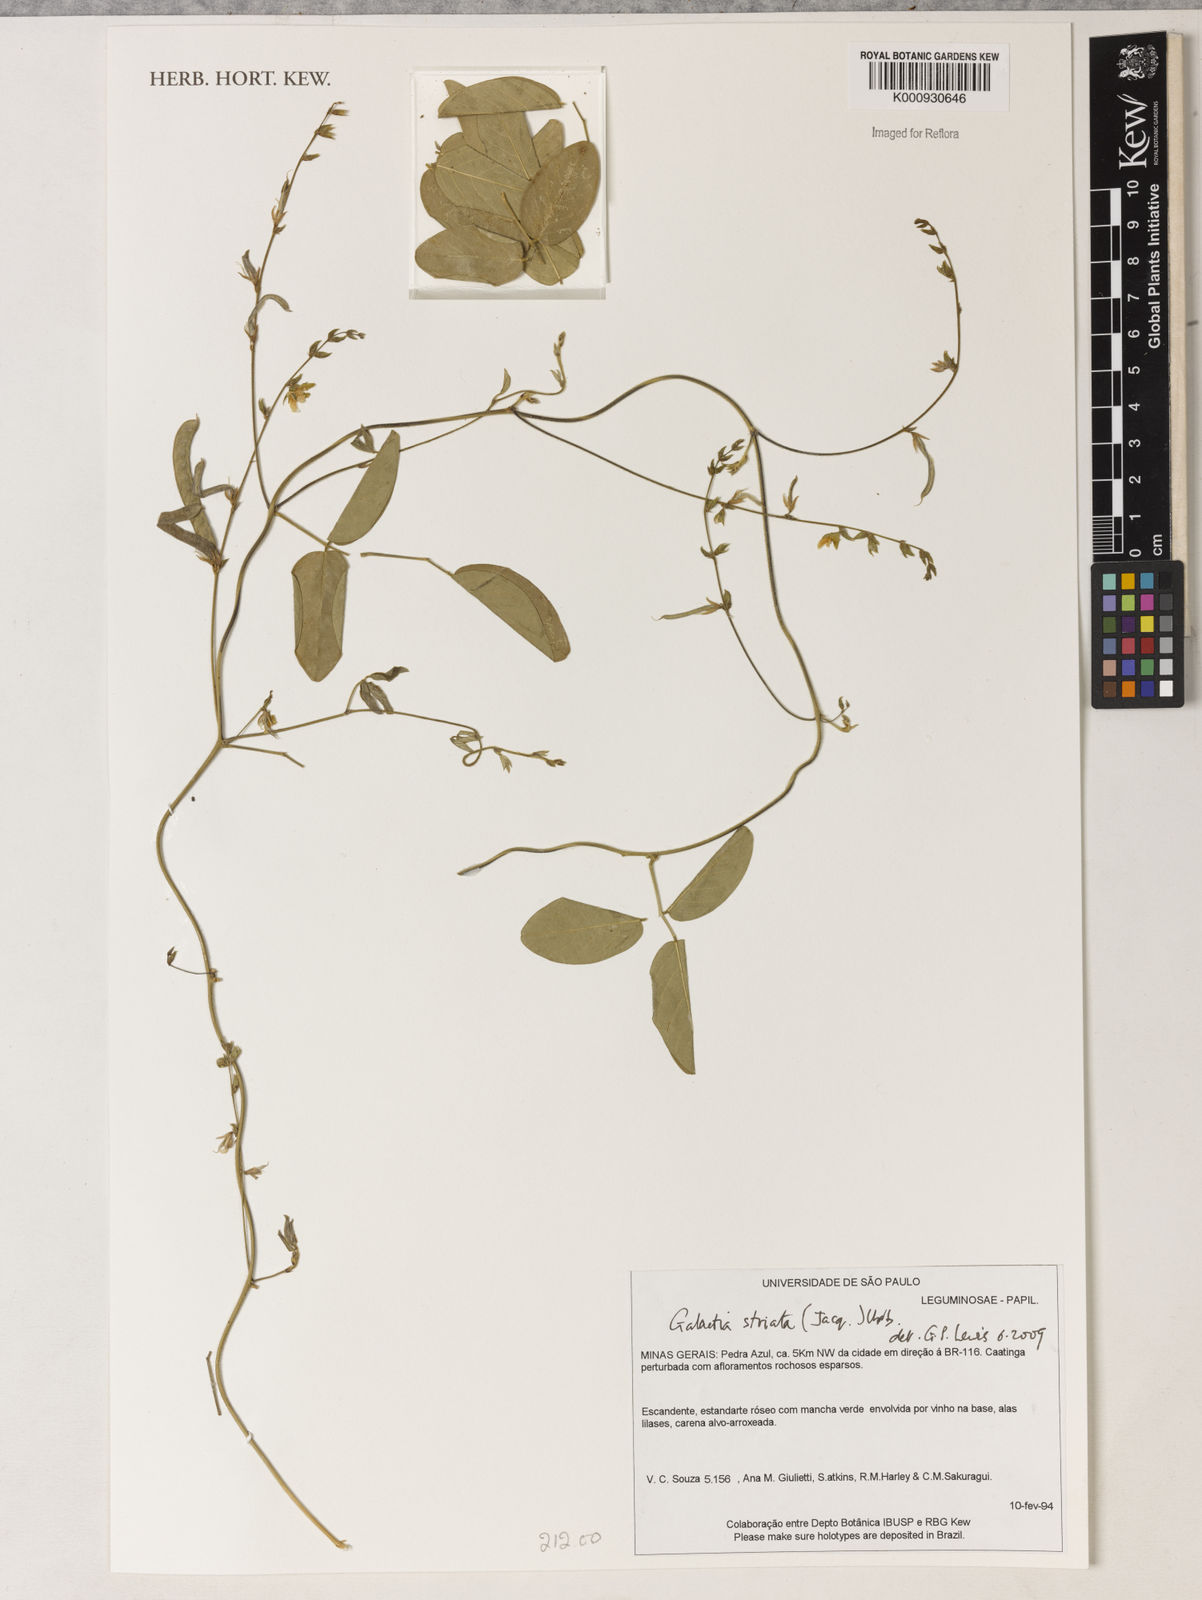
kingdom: Plantae
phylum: Tracheophyta
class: Magnoliopsida
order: Fabales
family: Fabaceae
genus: Galactia
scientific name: Galactia striata
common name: Florida hammock milkpea
